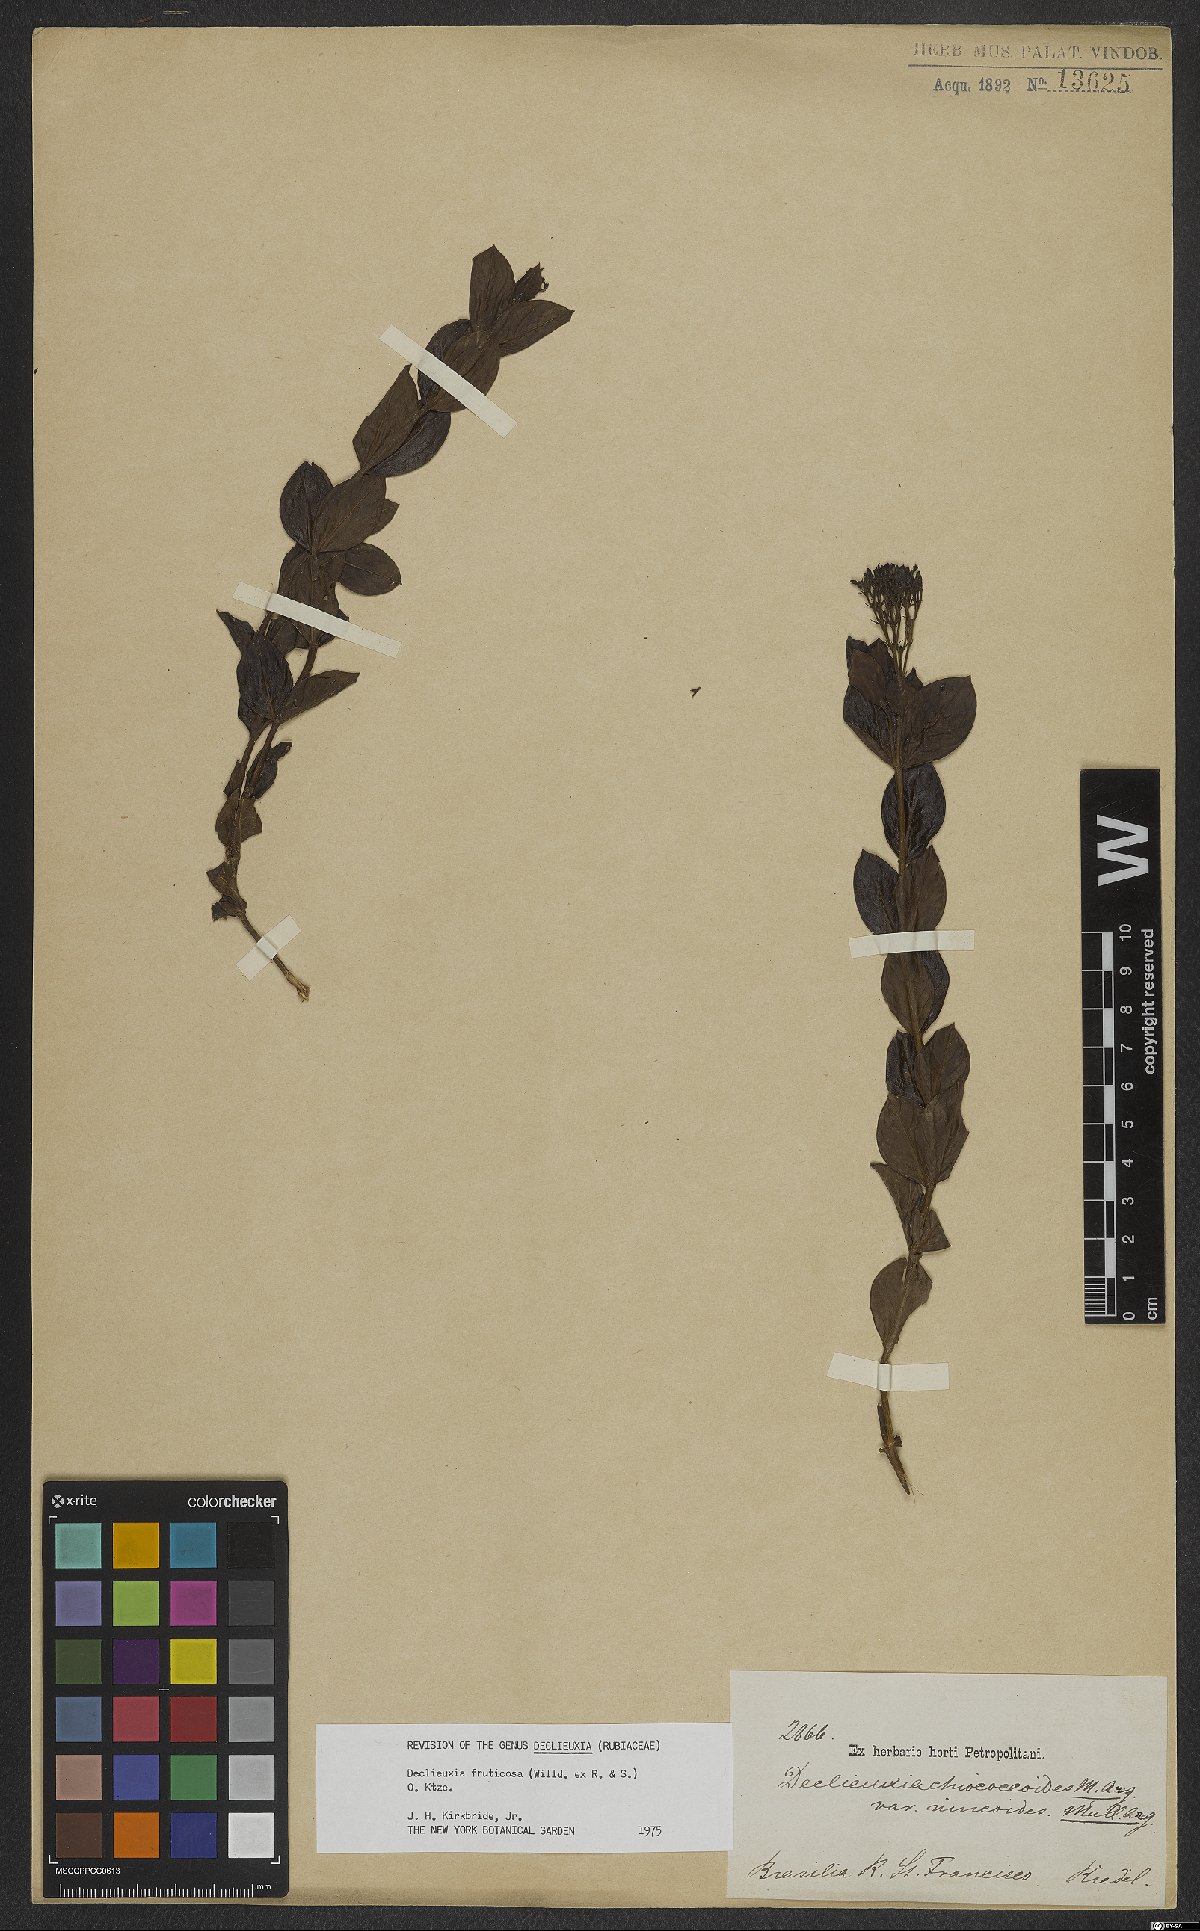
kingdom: Plantae
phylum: Tracheophyta
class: Magnoliopsida
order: Gentianales
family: Rubiaceae
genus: Declieuxia
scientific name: Declieuxia fruticosa
